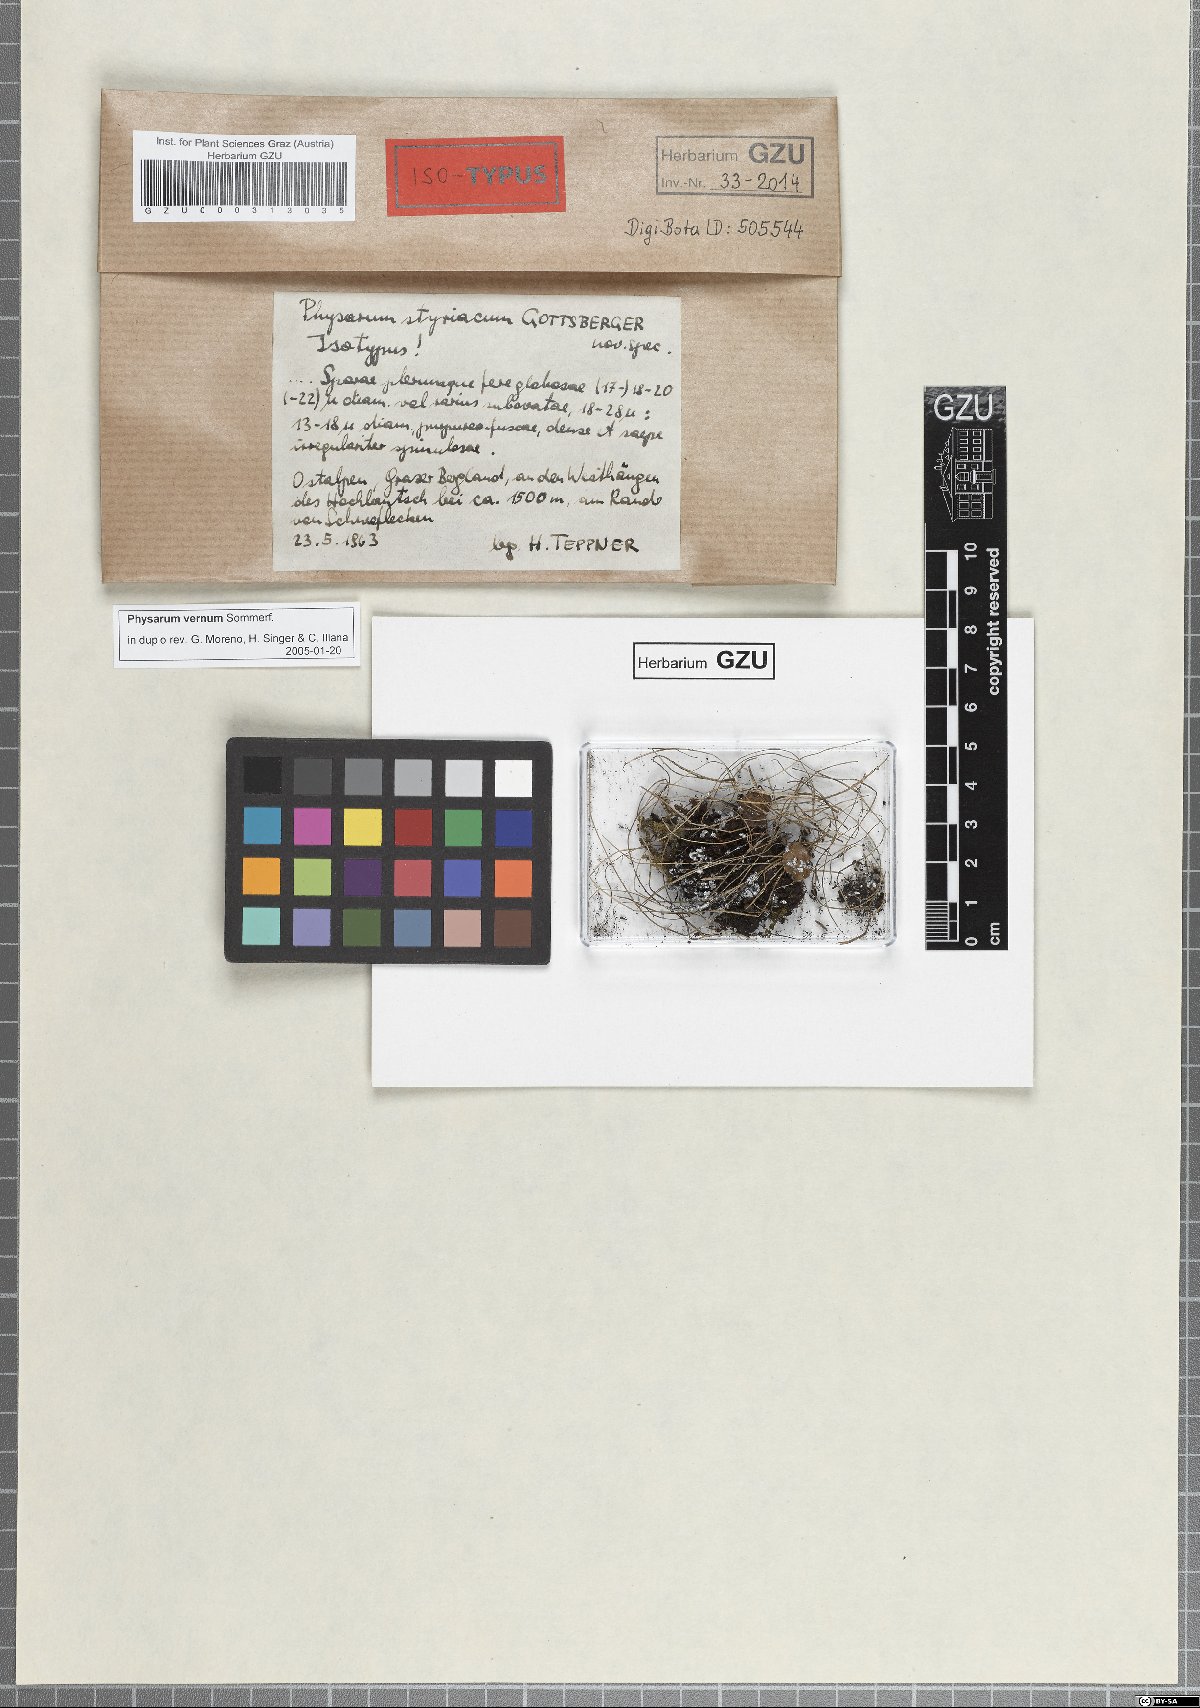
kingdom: Protozoa
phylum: Mycetozoa
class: Myxomycetes
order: Physarales
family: Physaraceae
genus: Physarum
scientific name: Physarum vernum
